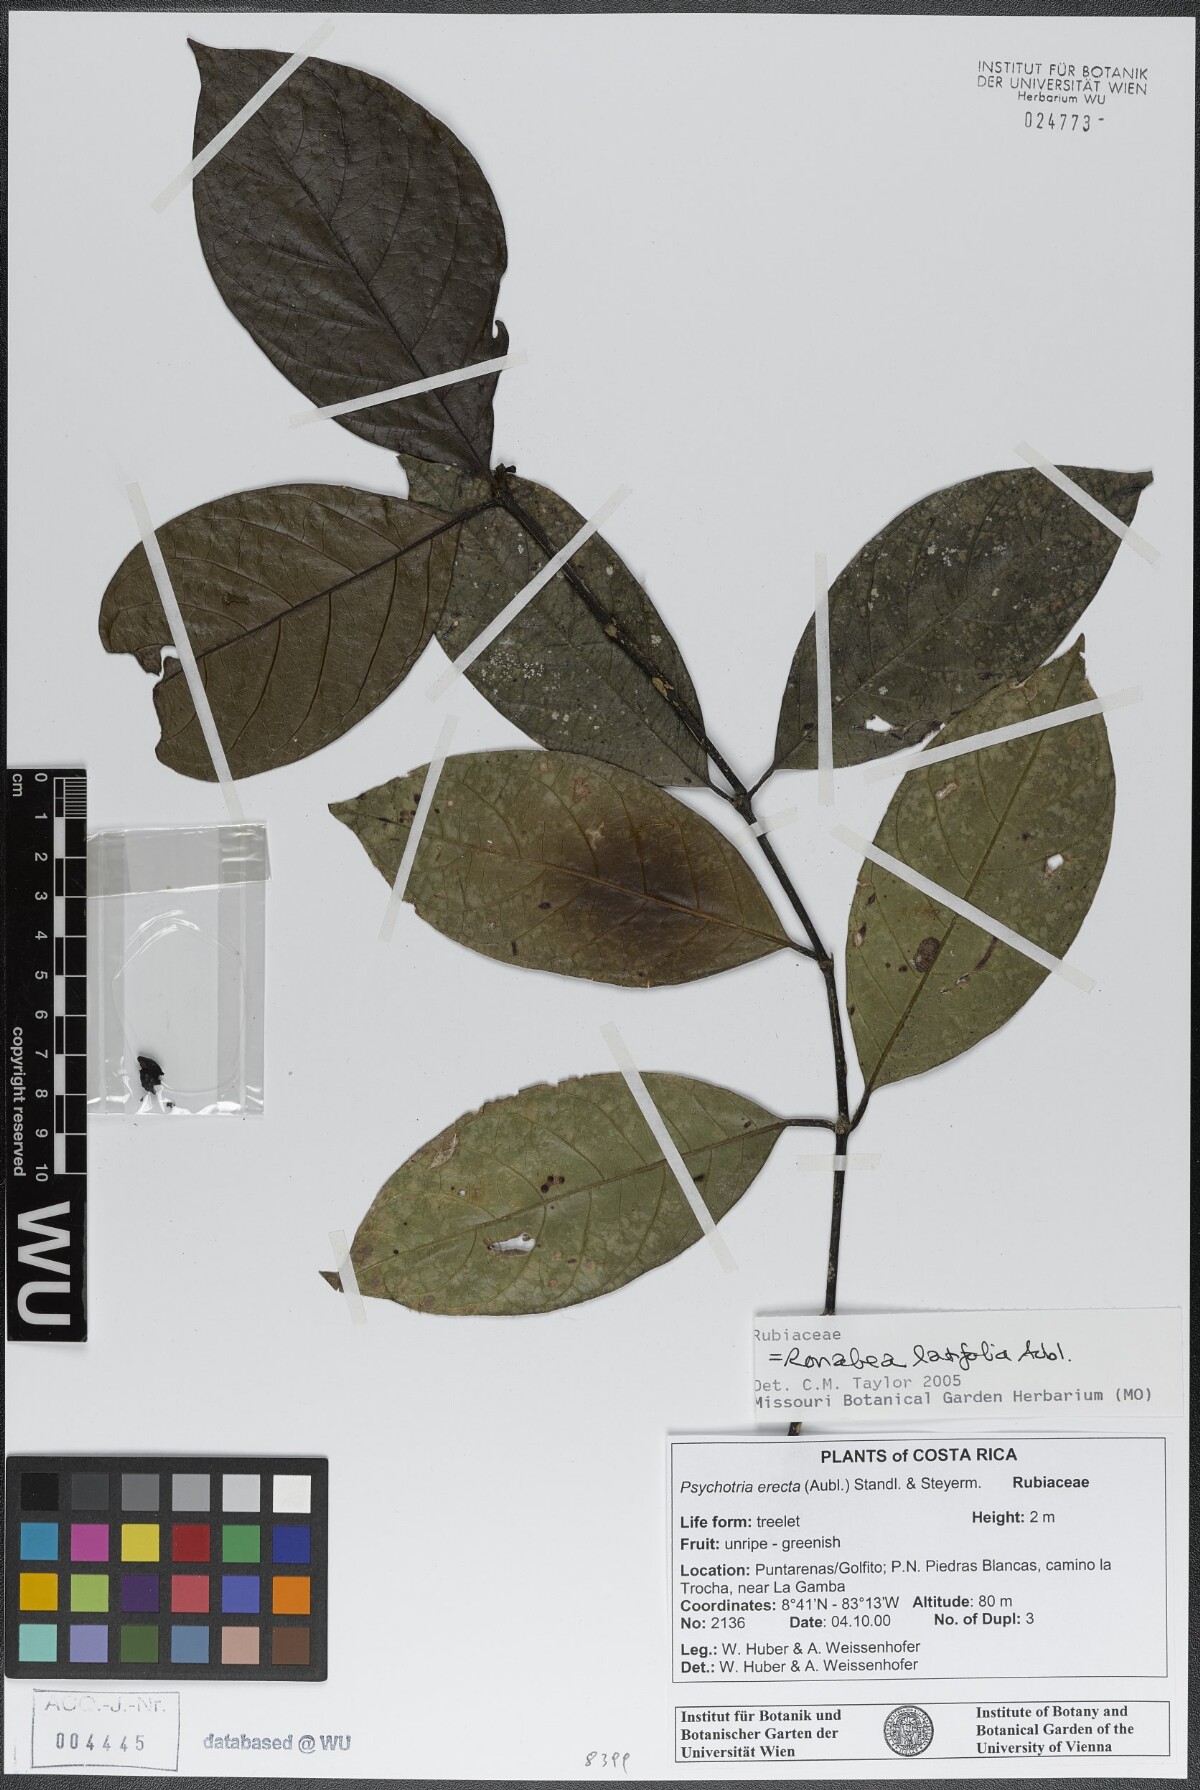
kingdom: Plantae
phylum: Tracheophyta
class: Magnoliopsida
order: Gentianales
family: Rubiaceae
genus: Ronabea
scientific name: Ronabea latifolia
